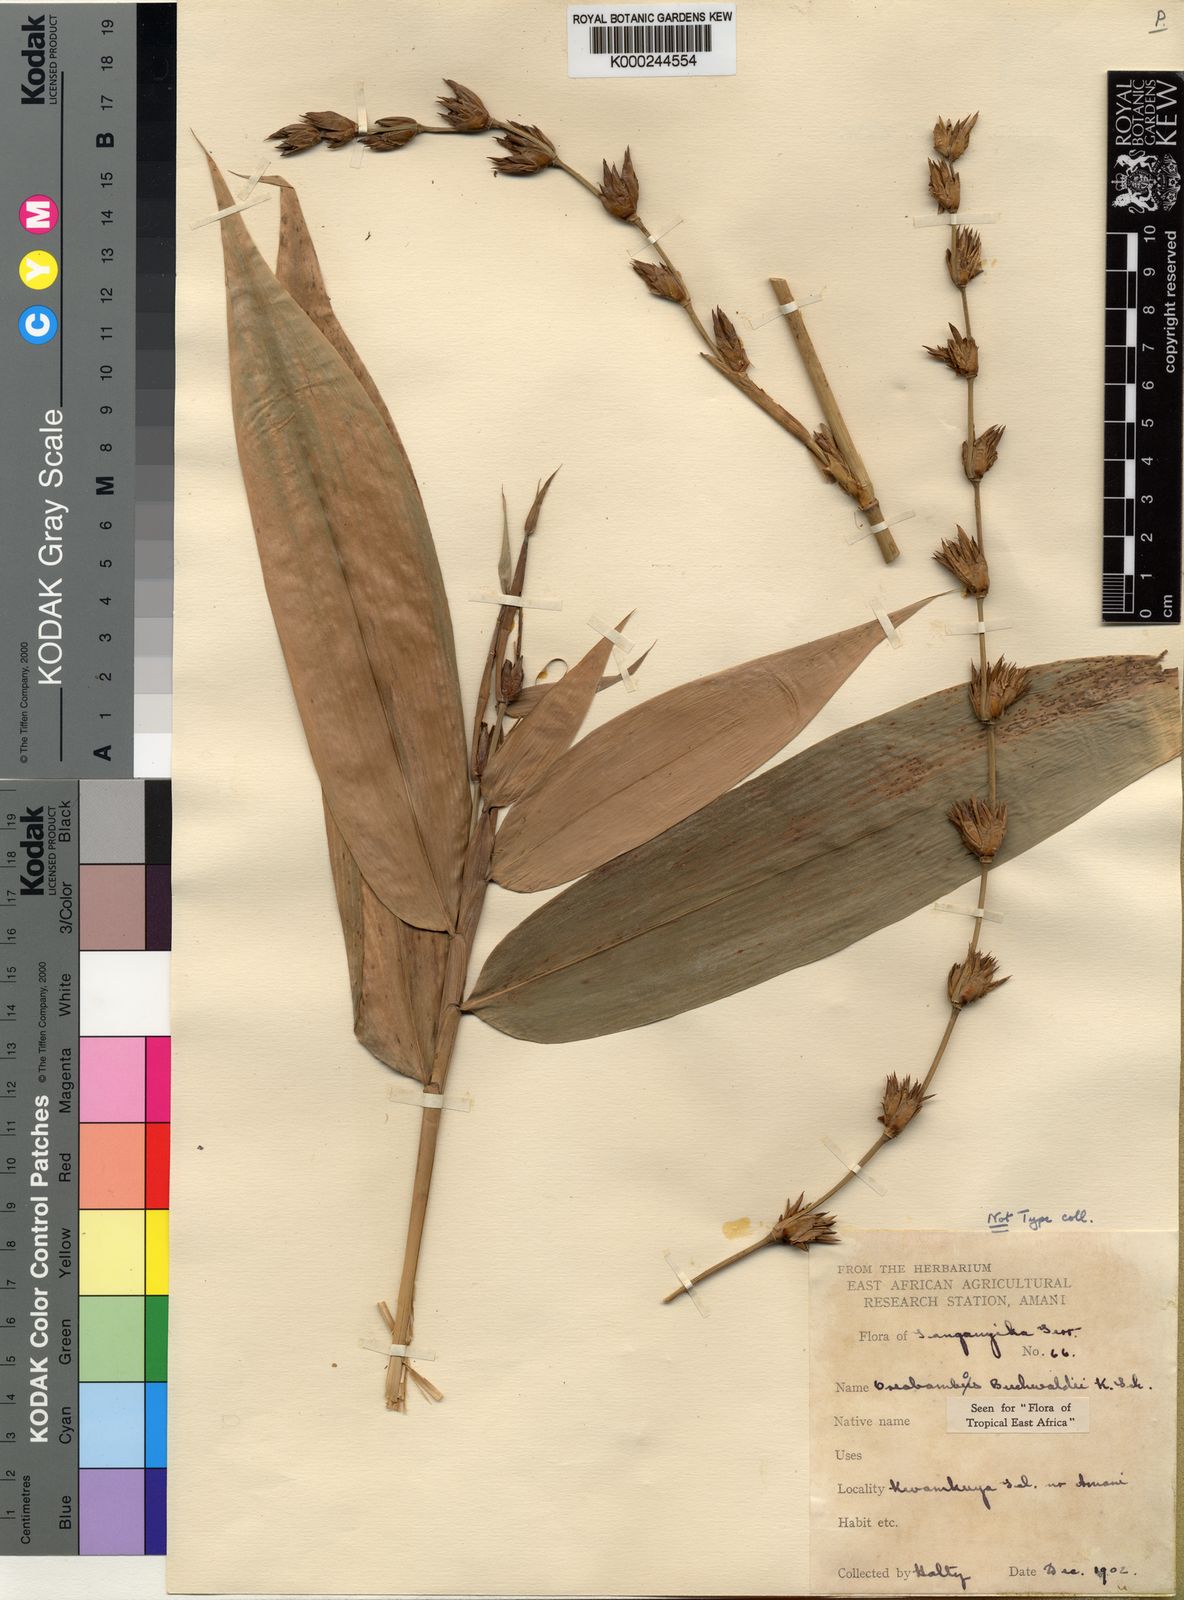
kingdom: Plantae
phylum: Tracheophyta
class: Liliopsida
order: Poales
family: Poaceae
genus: Oreobambos
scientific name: Oreobambos buchwaldii
